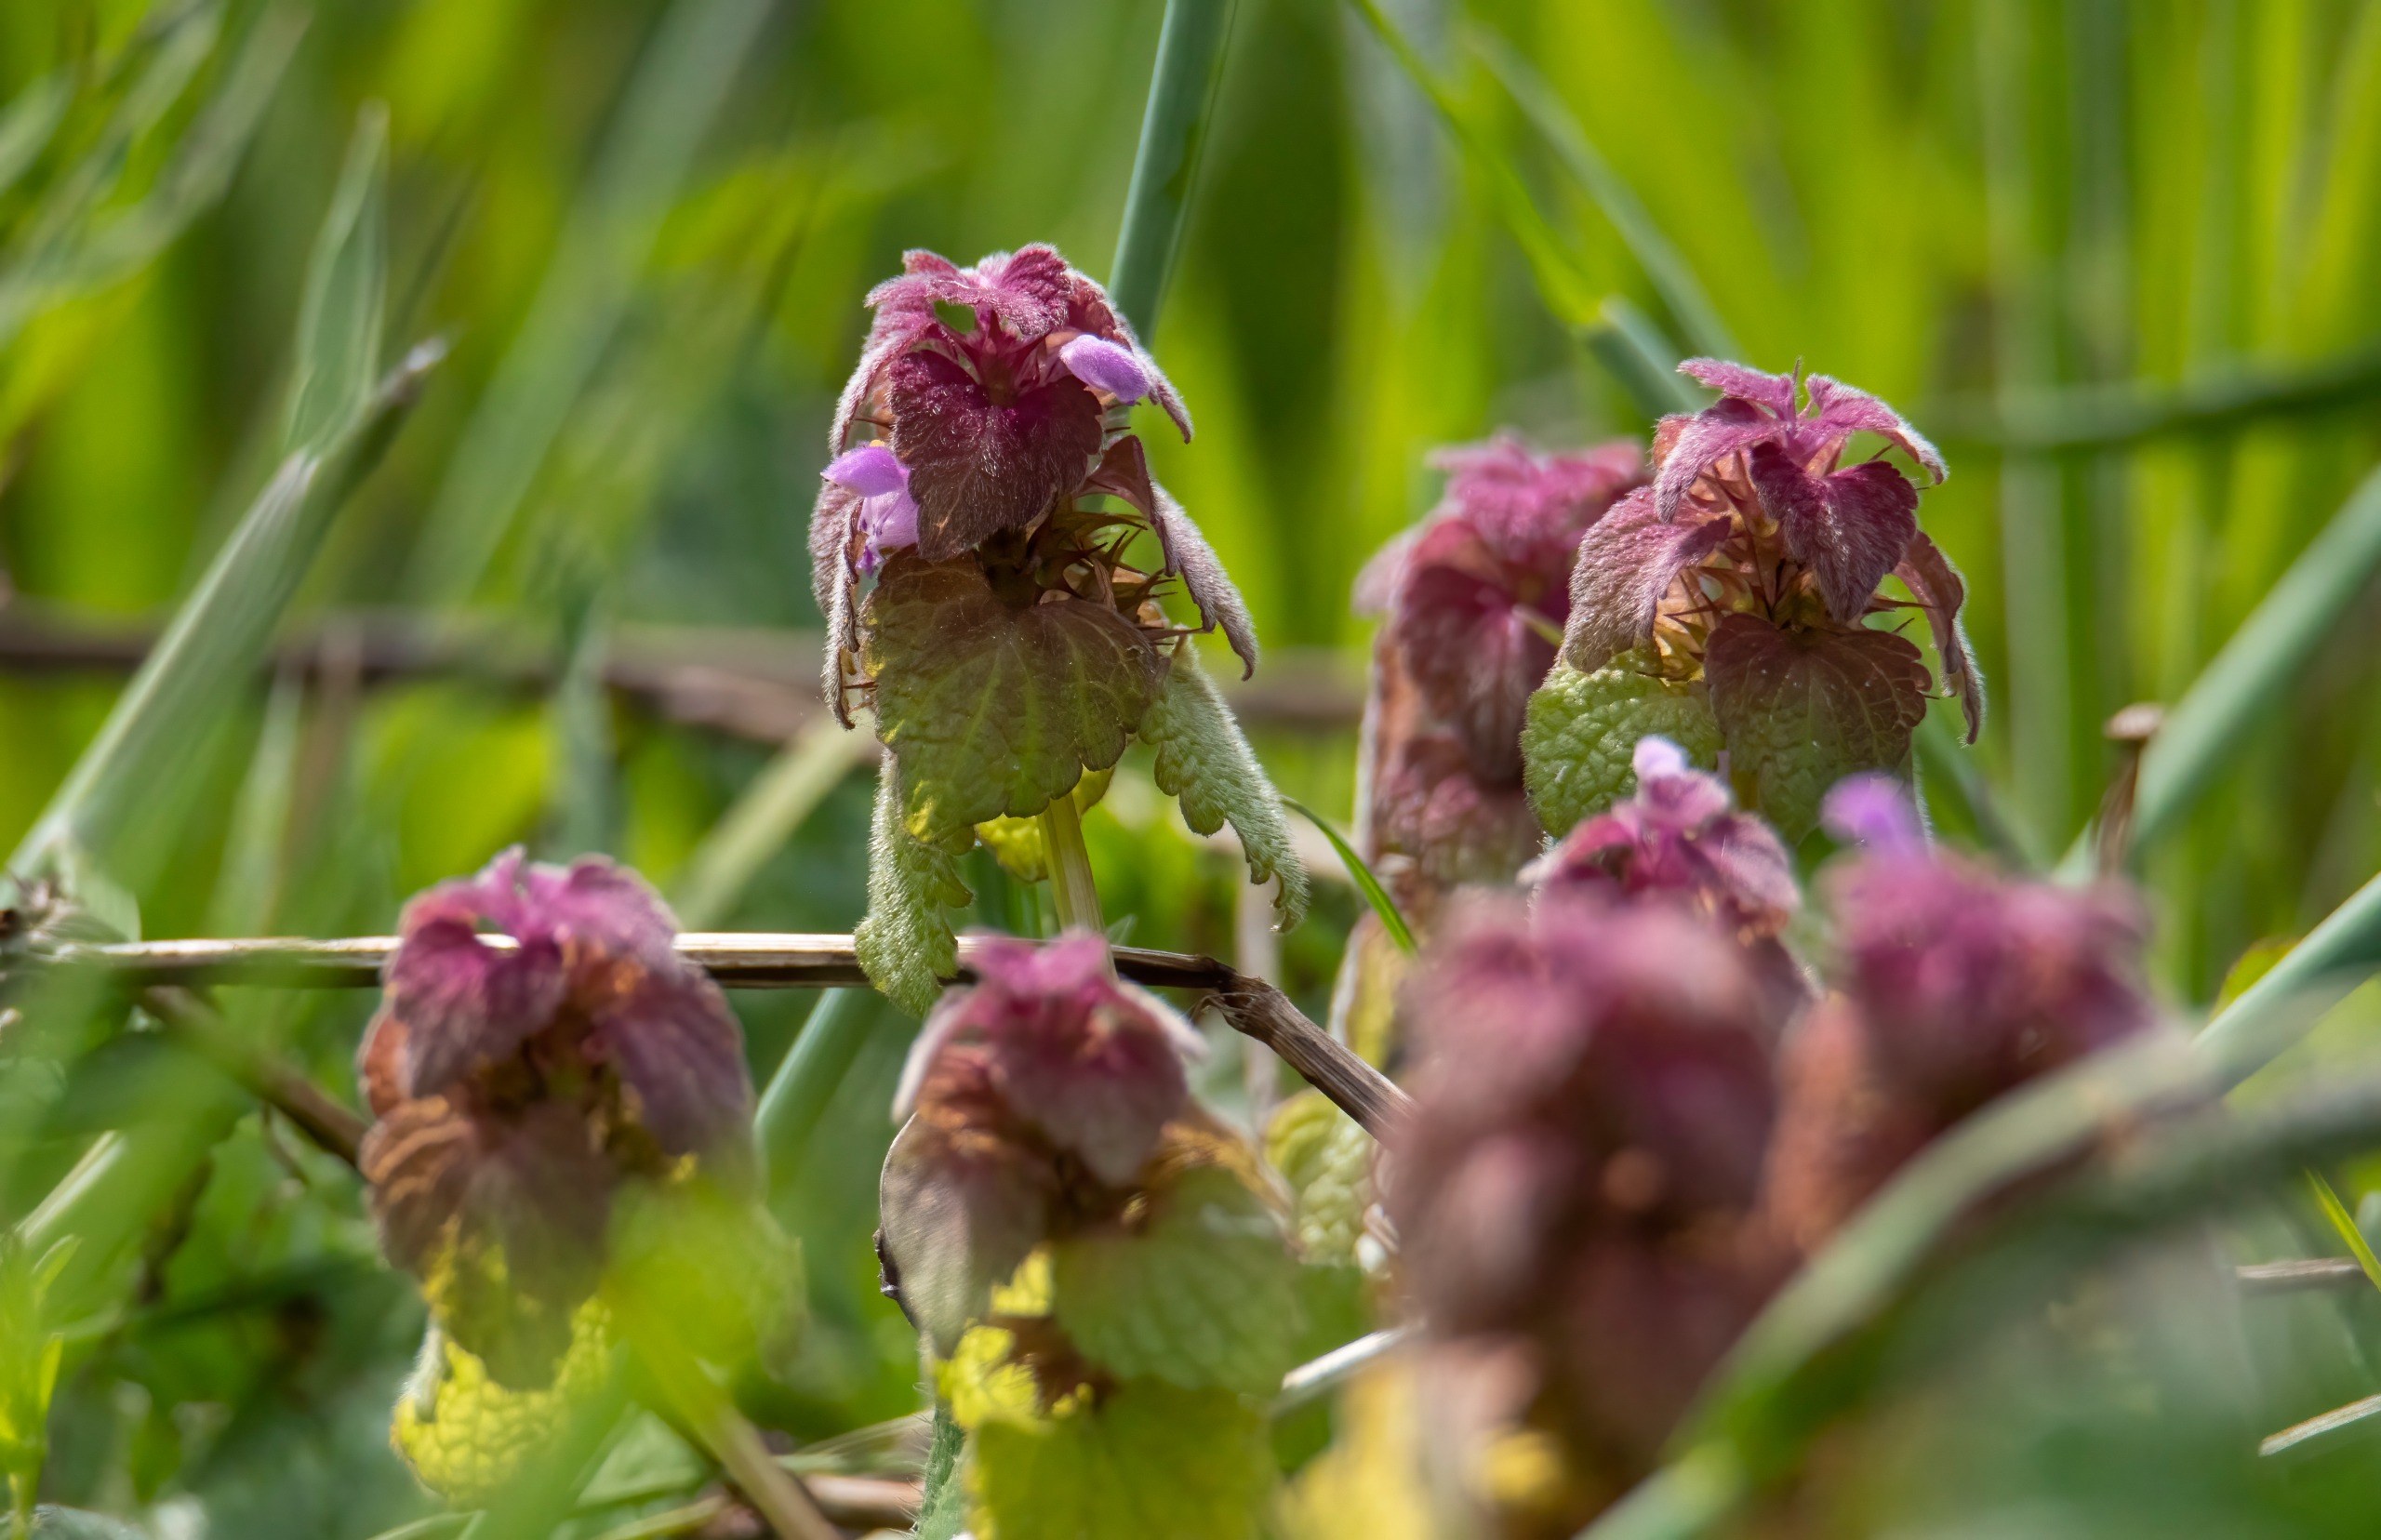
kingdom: Plantae
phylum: Tracheophyta
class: Magnoliopsida
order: Lamiales
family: Lamiaceae
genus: Lamium
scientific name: Lamium purpureum
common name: Rød tvetand
